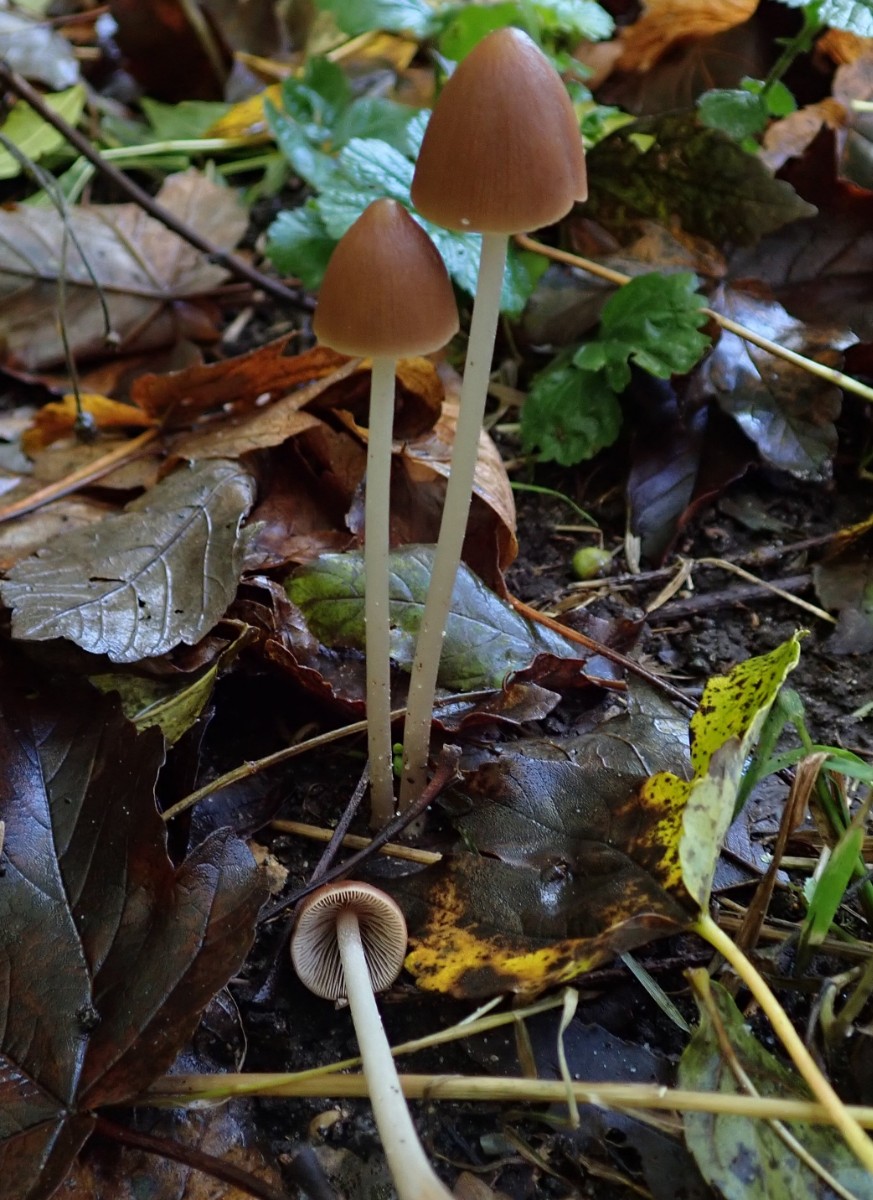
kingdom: Fungi
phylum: Basidiomycota
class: Agaricomycetes
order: Agaricales
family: Psathyrellaceae
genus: Parasola
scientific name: Parasola conopilea
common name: kegle-hjulhat
